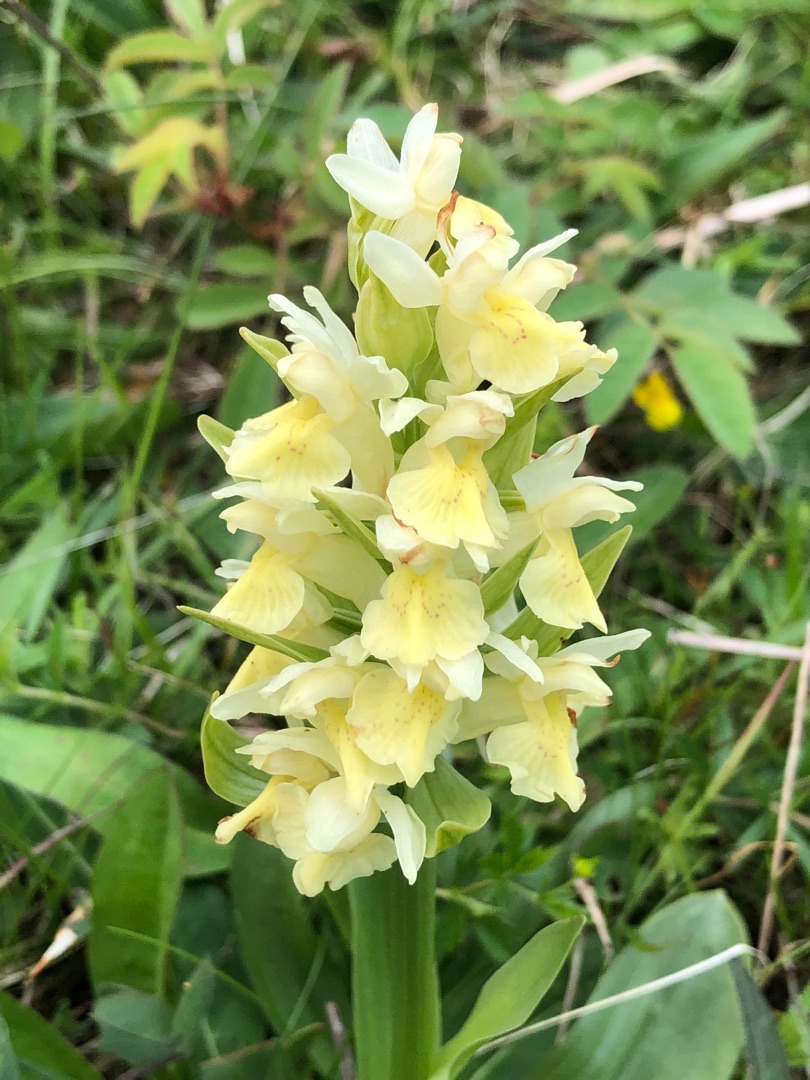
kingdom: Plantae
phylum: Tracheophyta
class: Liliopsida
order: Asparagales
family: Orchidaceae
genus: Dactylorhiza
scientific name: Dactylorhiza sambucina
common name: Hylde-gøgeurt
